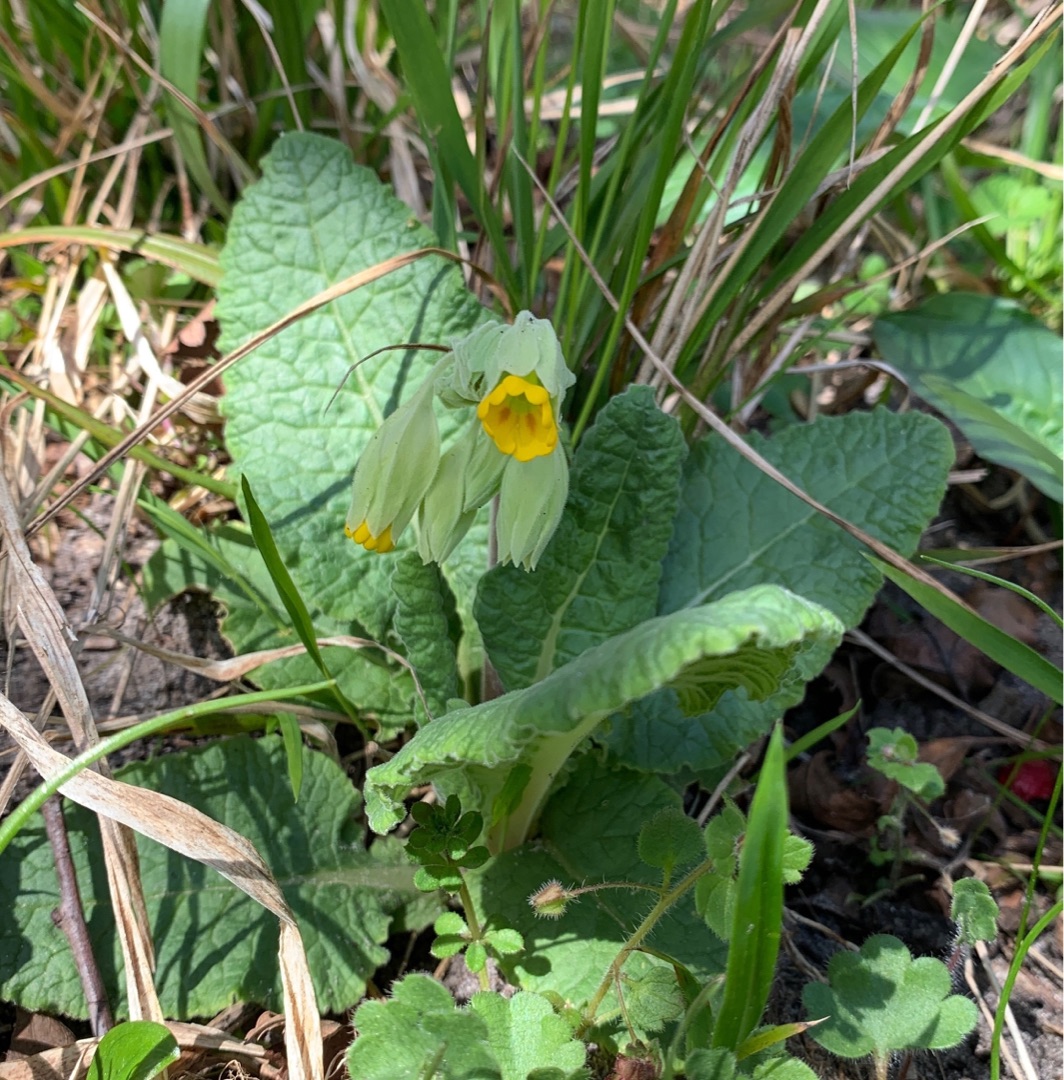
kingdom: Plantae
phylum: Tracheophyta
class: Magnoliopsida
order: Ericales
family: Primulaceae
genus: Primula
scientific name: Primula veris
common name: Hulkravet kodriver
